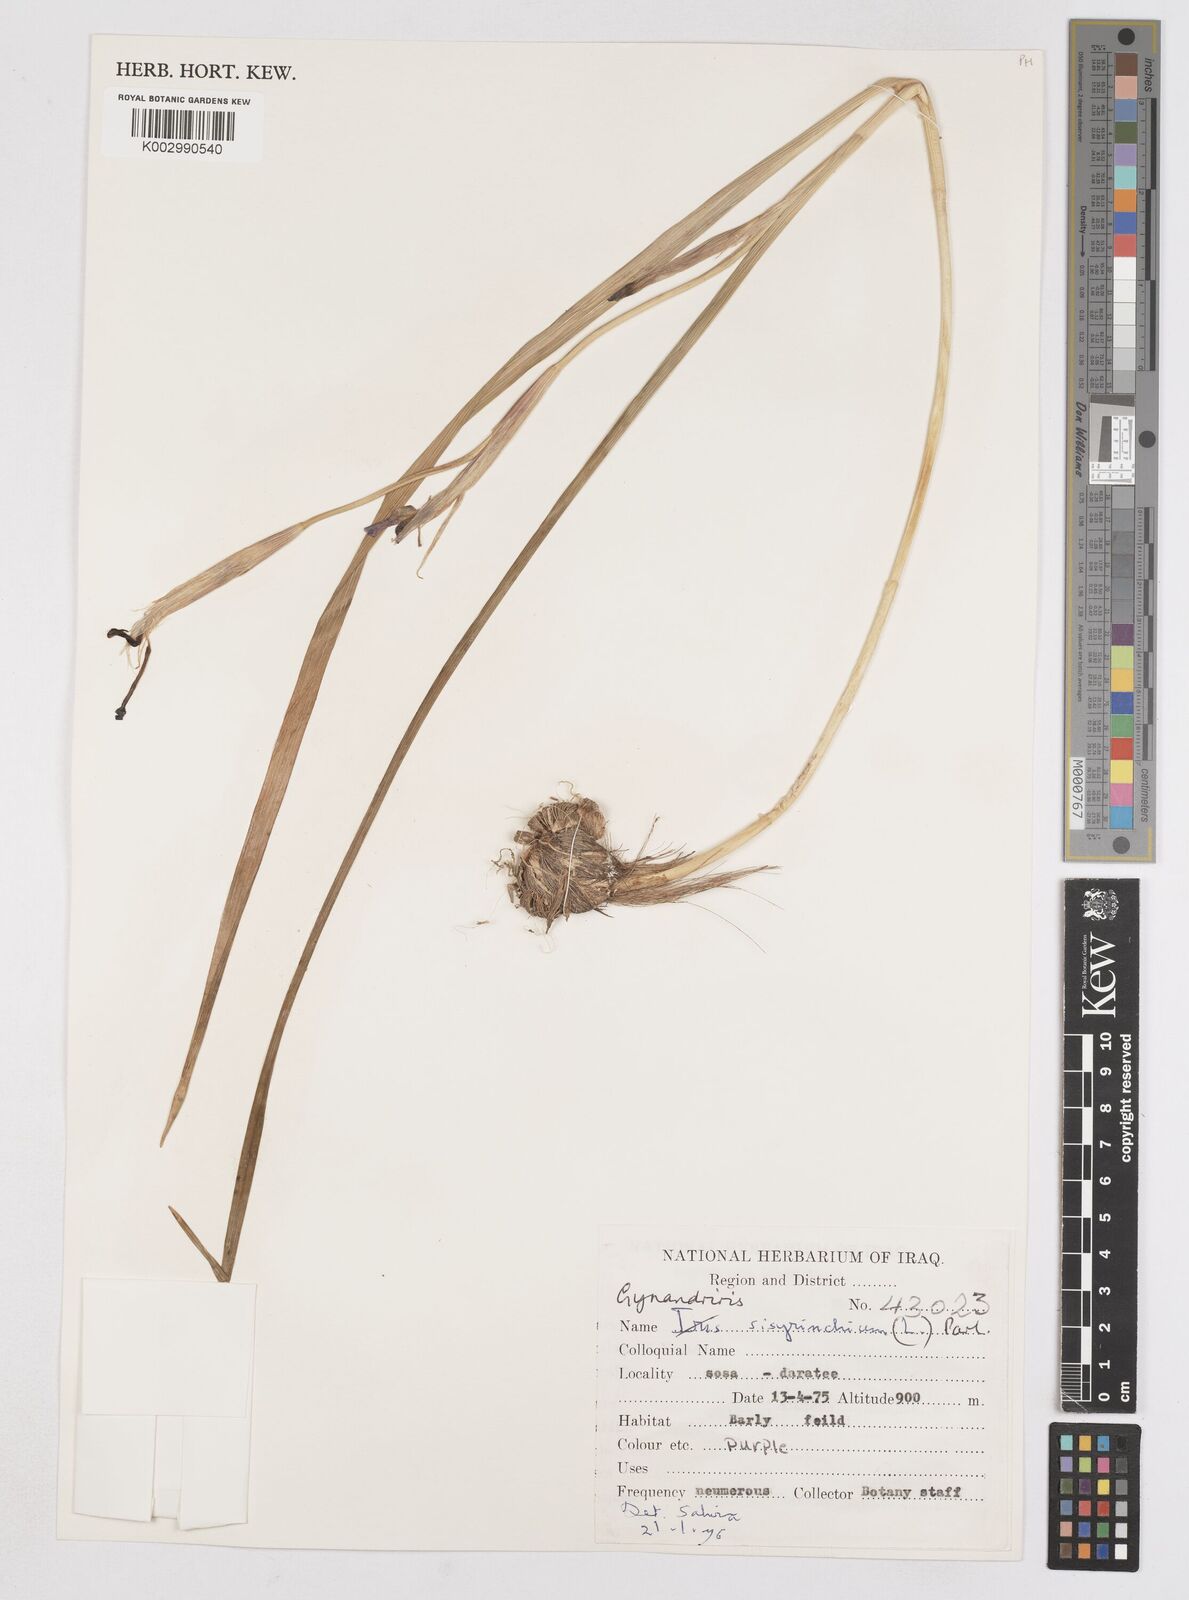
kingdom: Plantae
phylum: Tracheophyta
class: Liliopsida
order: Asparagales
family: Iridaceae
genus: Moraea
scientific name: Moraea sisyrinchium
